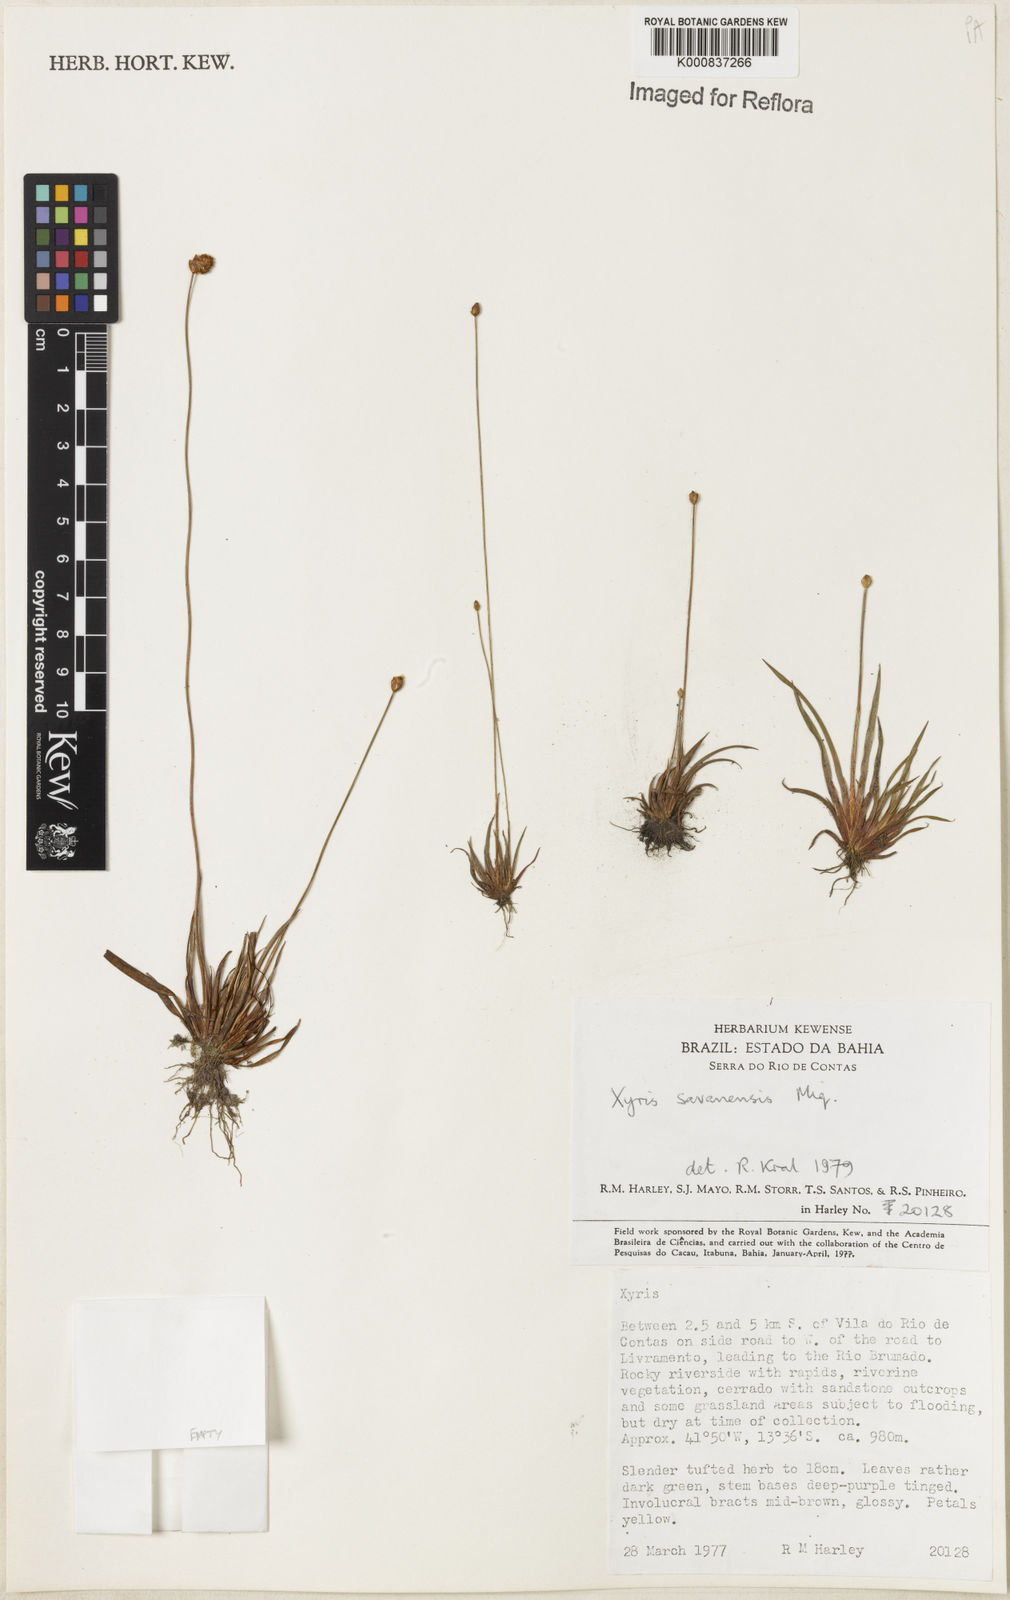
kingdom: Plantae
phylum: Tracheophyta
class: Liliopsida
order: Poales
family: Xyridaceae
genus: Xyris
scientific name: Xyris savanensis
